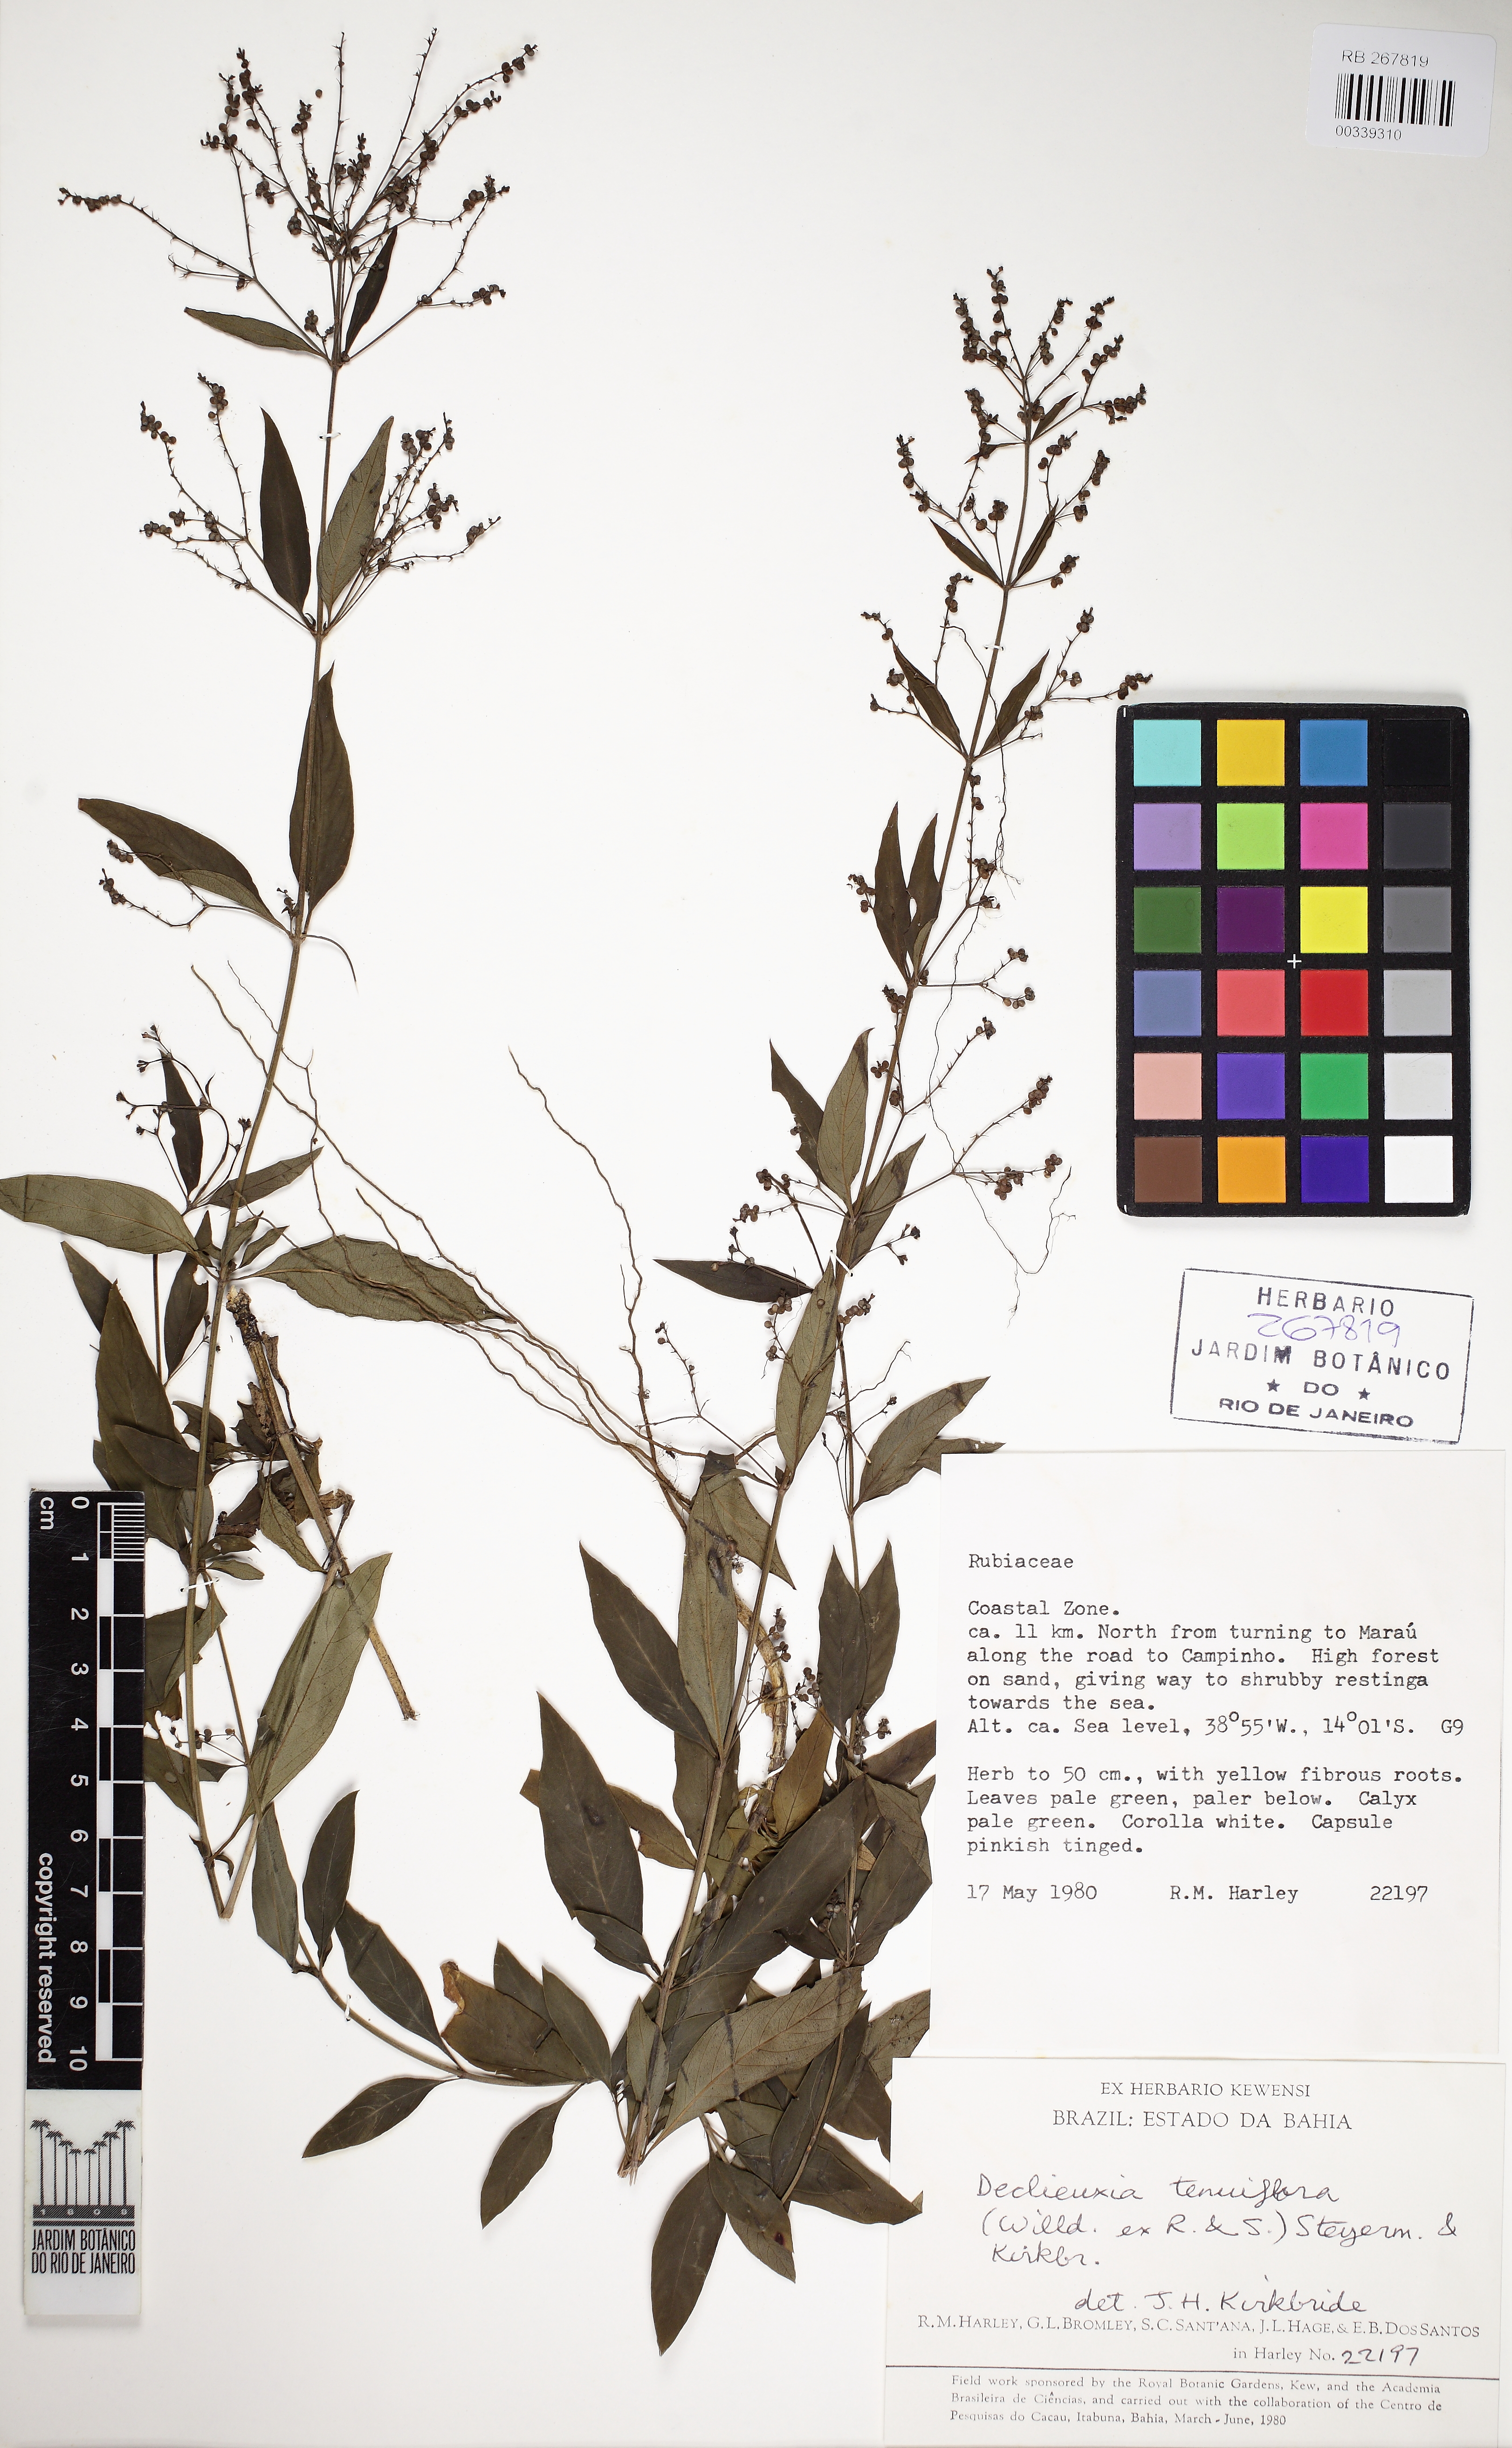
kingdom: Plantae
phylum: Tracheophyta
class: Magnoliopsida
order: Gentianales
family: Rubiaceae
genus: Declieuxia
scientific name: Declieuxia tenuiflora
